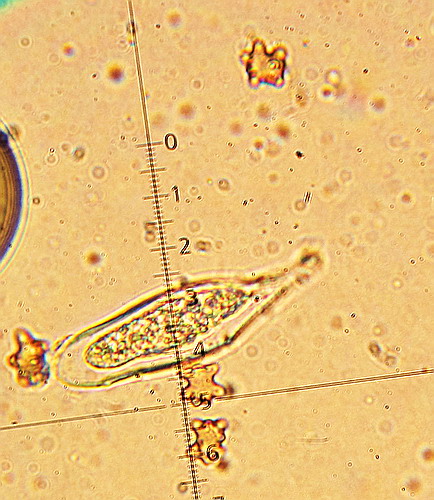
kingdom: Fungi
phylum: Basidiomycota
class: Agaricomycetes
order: Agaricales
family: Inocybaceae
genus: Inocybe
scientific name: Inocybe napipes
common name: roeknoldet trævlhat
